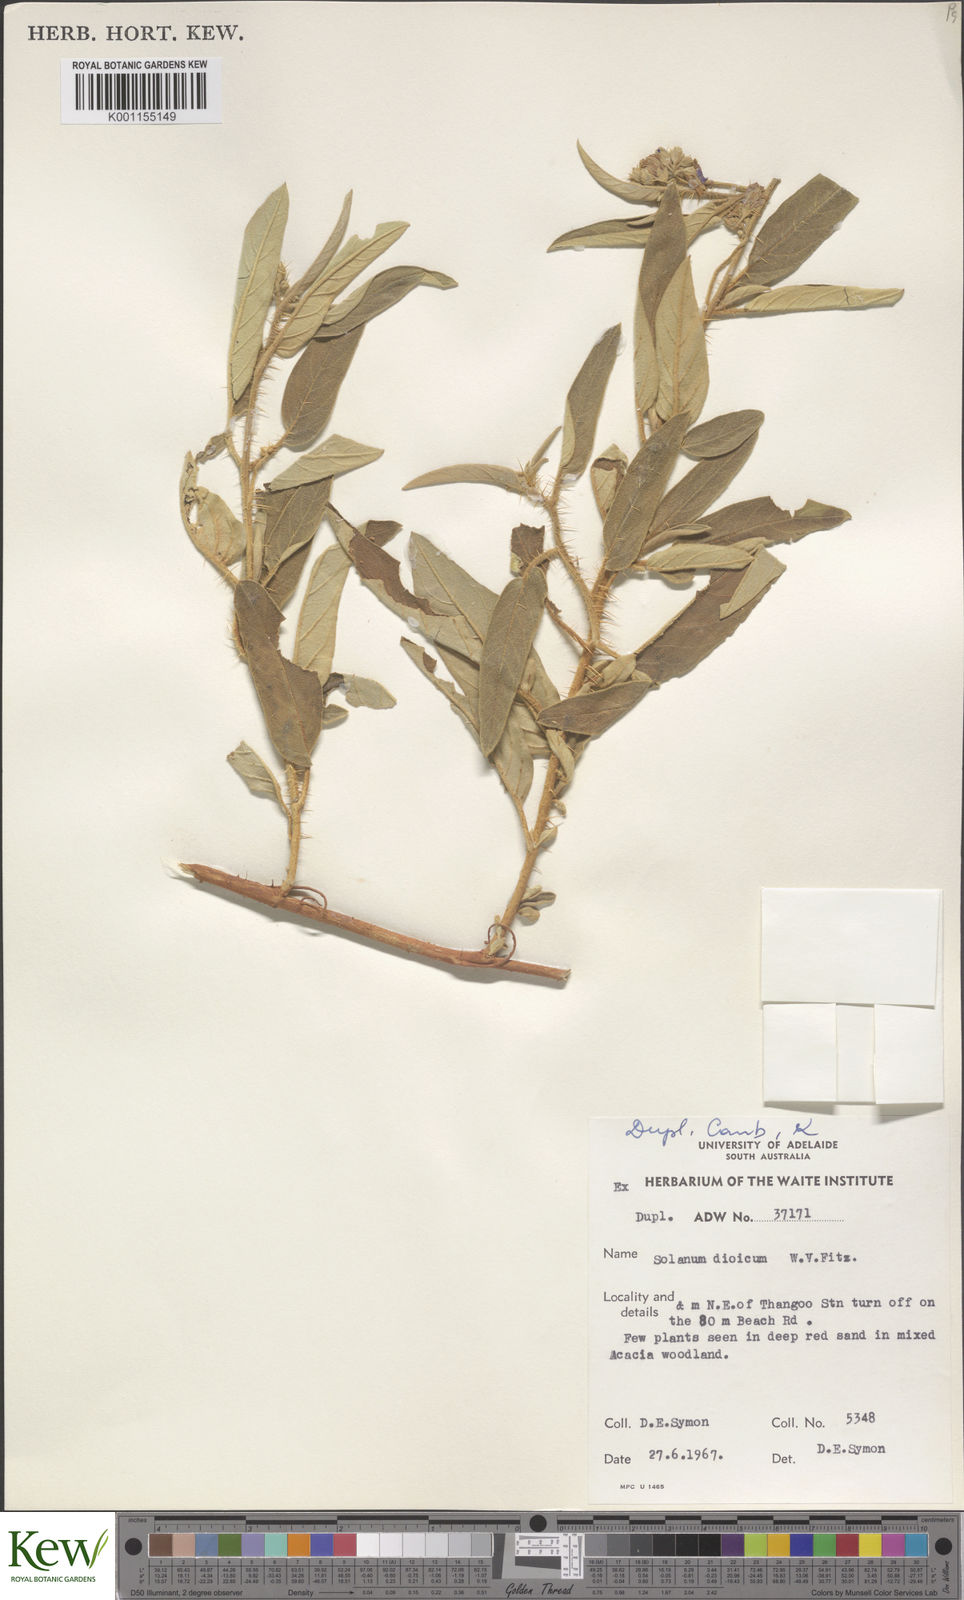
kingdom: Plantae
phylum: Tracheophyta
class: Magnoliopsida
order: Solanales
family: Solanaceae
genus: Solanum
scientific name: Solanum dioicum
